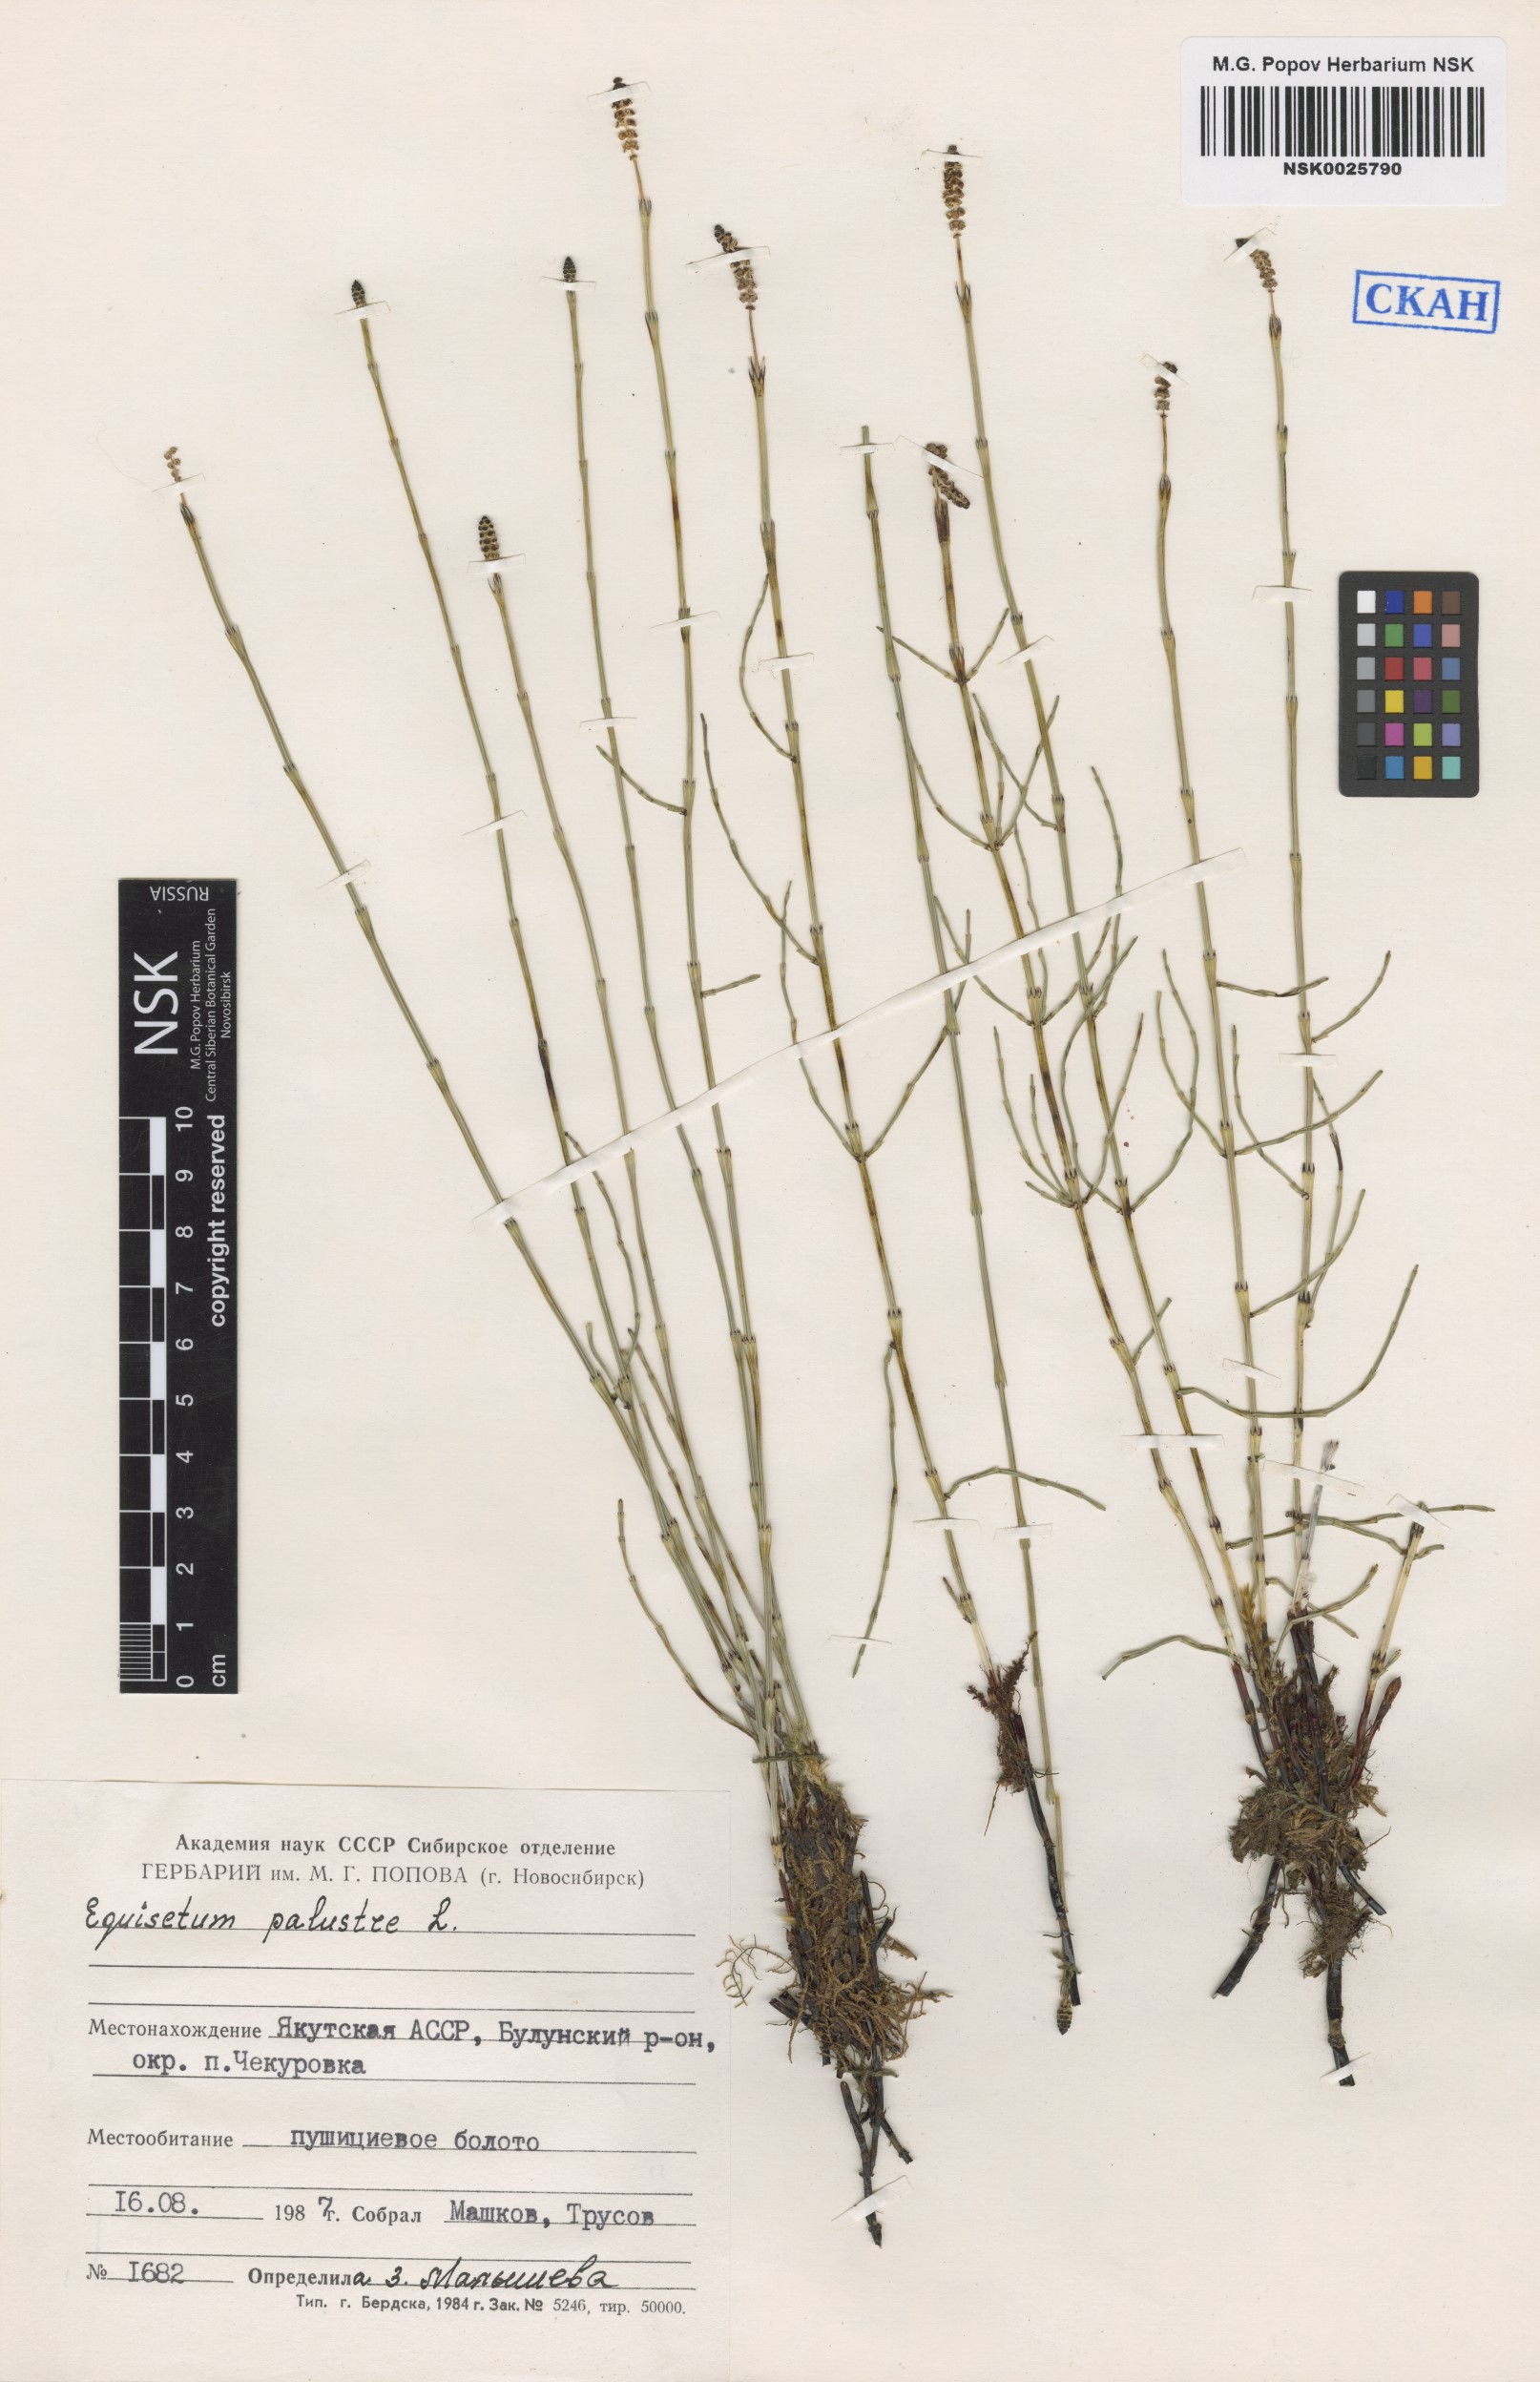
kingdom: Plantae
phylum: Tracheophyta
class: Polypodiopsida
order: Equisetales
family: Equisetaceae
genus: Equisetum
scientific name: Equisetum palustre
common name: Marsh horsetail
